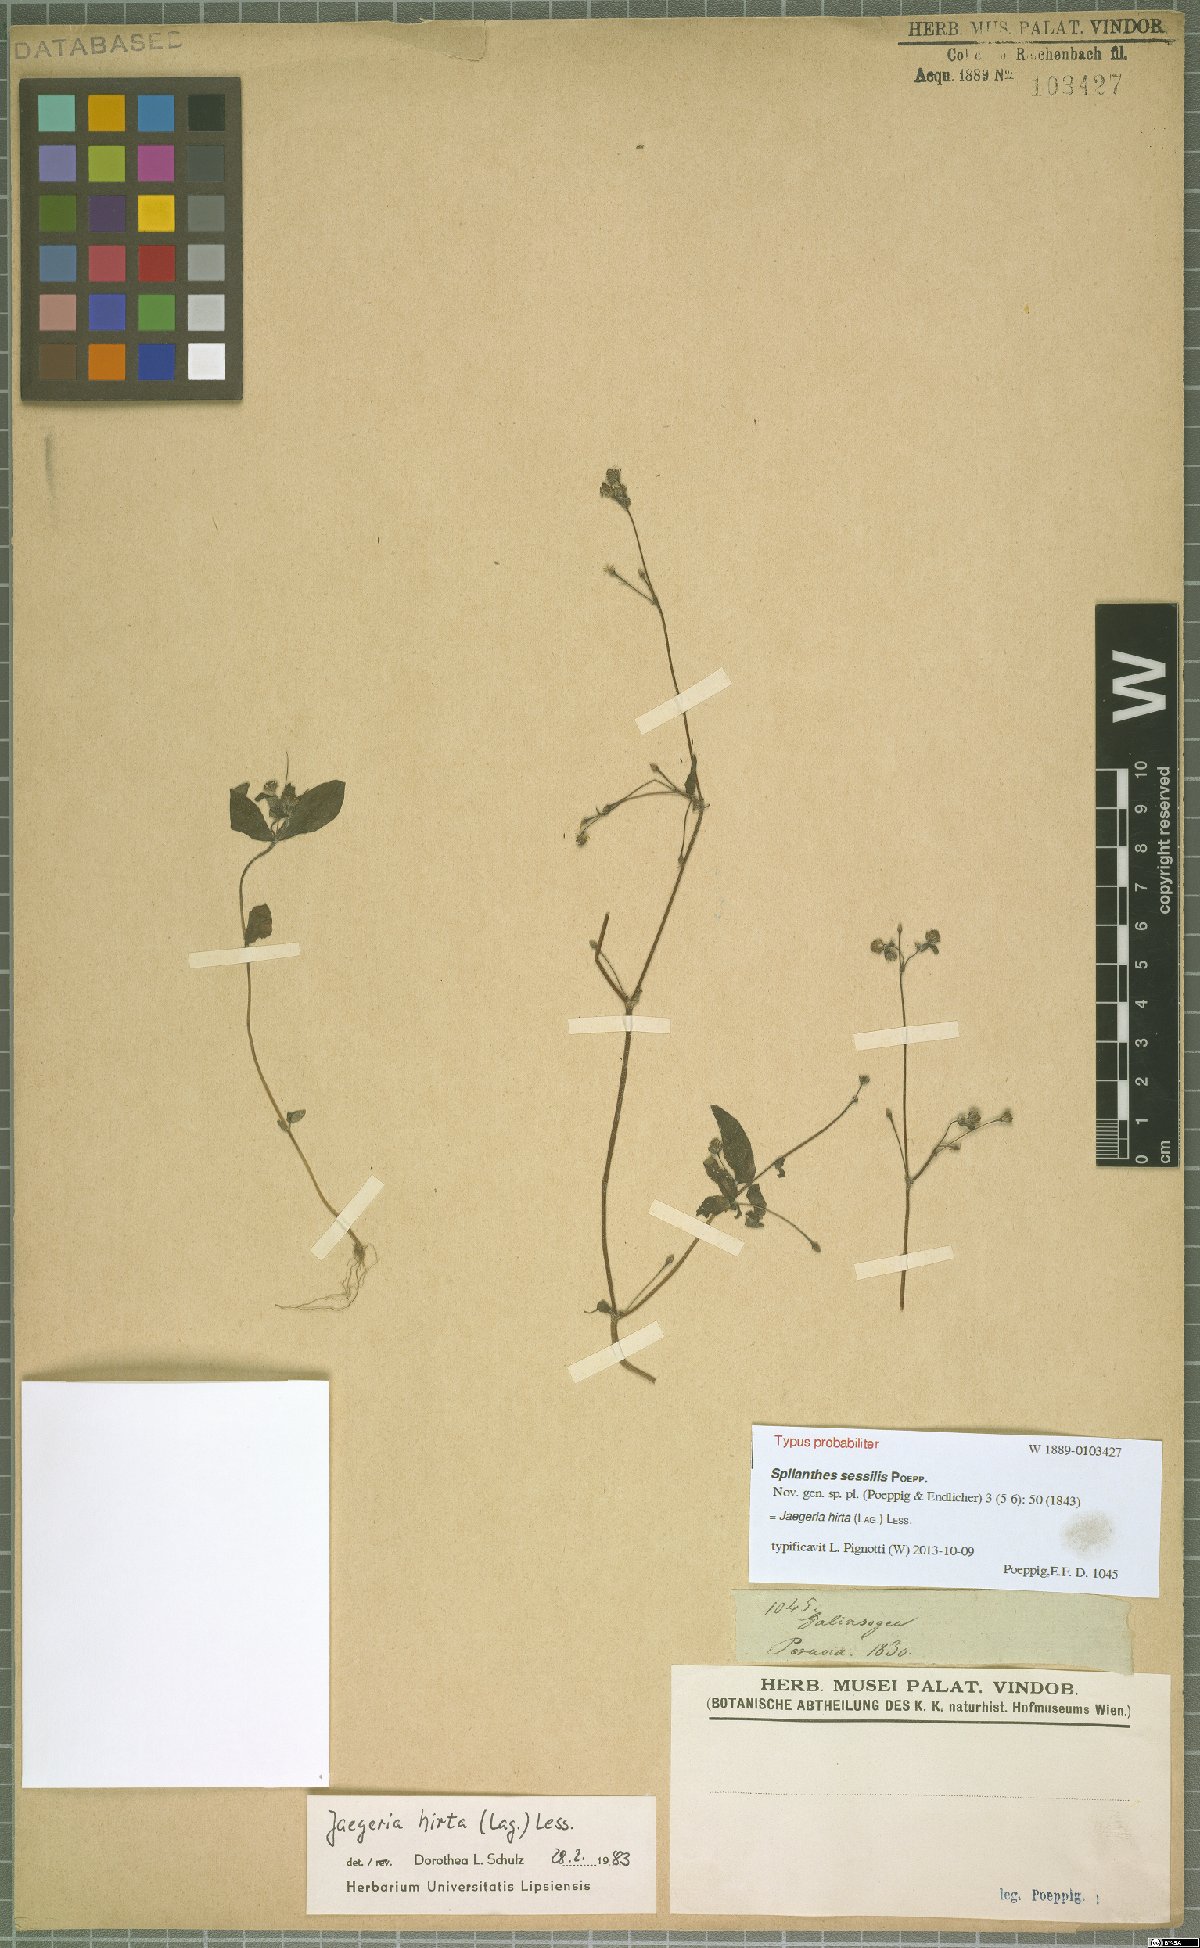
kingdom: Plantae
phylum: Tracheophyta
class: Magnoliopsida
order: Asterales
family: Asteraceae
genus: Jaegeria
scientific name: Jaegeria hirta
